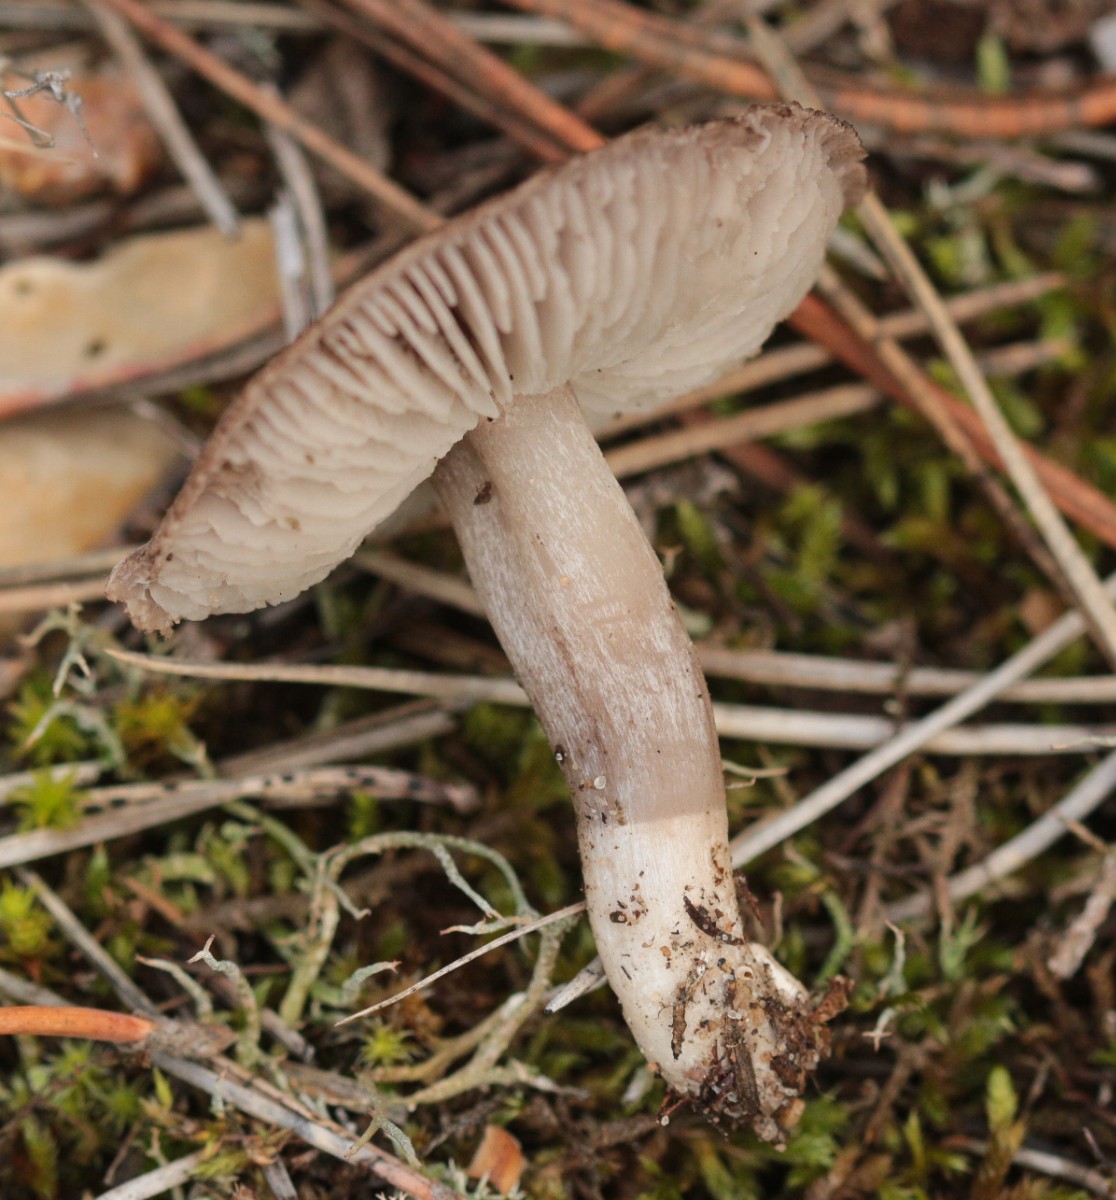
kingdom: Fungi
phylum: Basidiomycota
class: Agaricomycetes
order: Agaricales
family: Tricholomataceae
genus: Tricholoma
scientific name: Tricholoma terreum
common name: jordfarvet ridderhat
